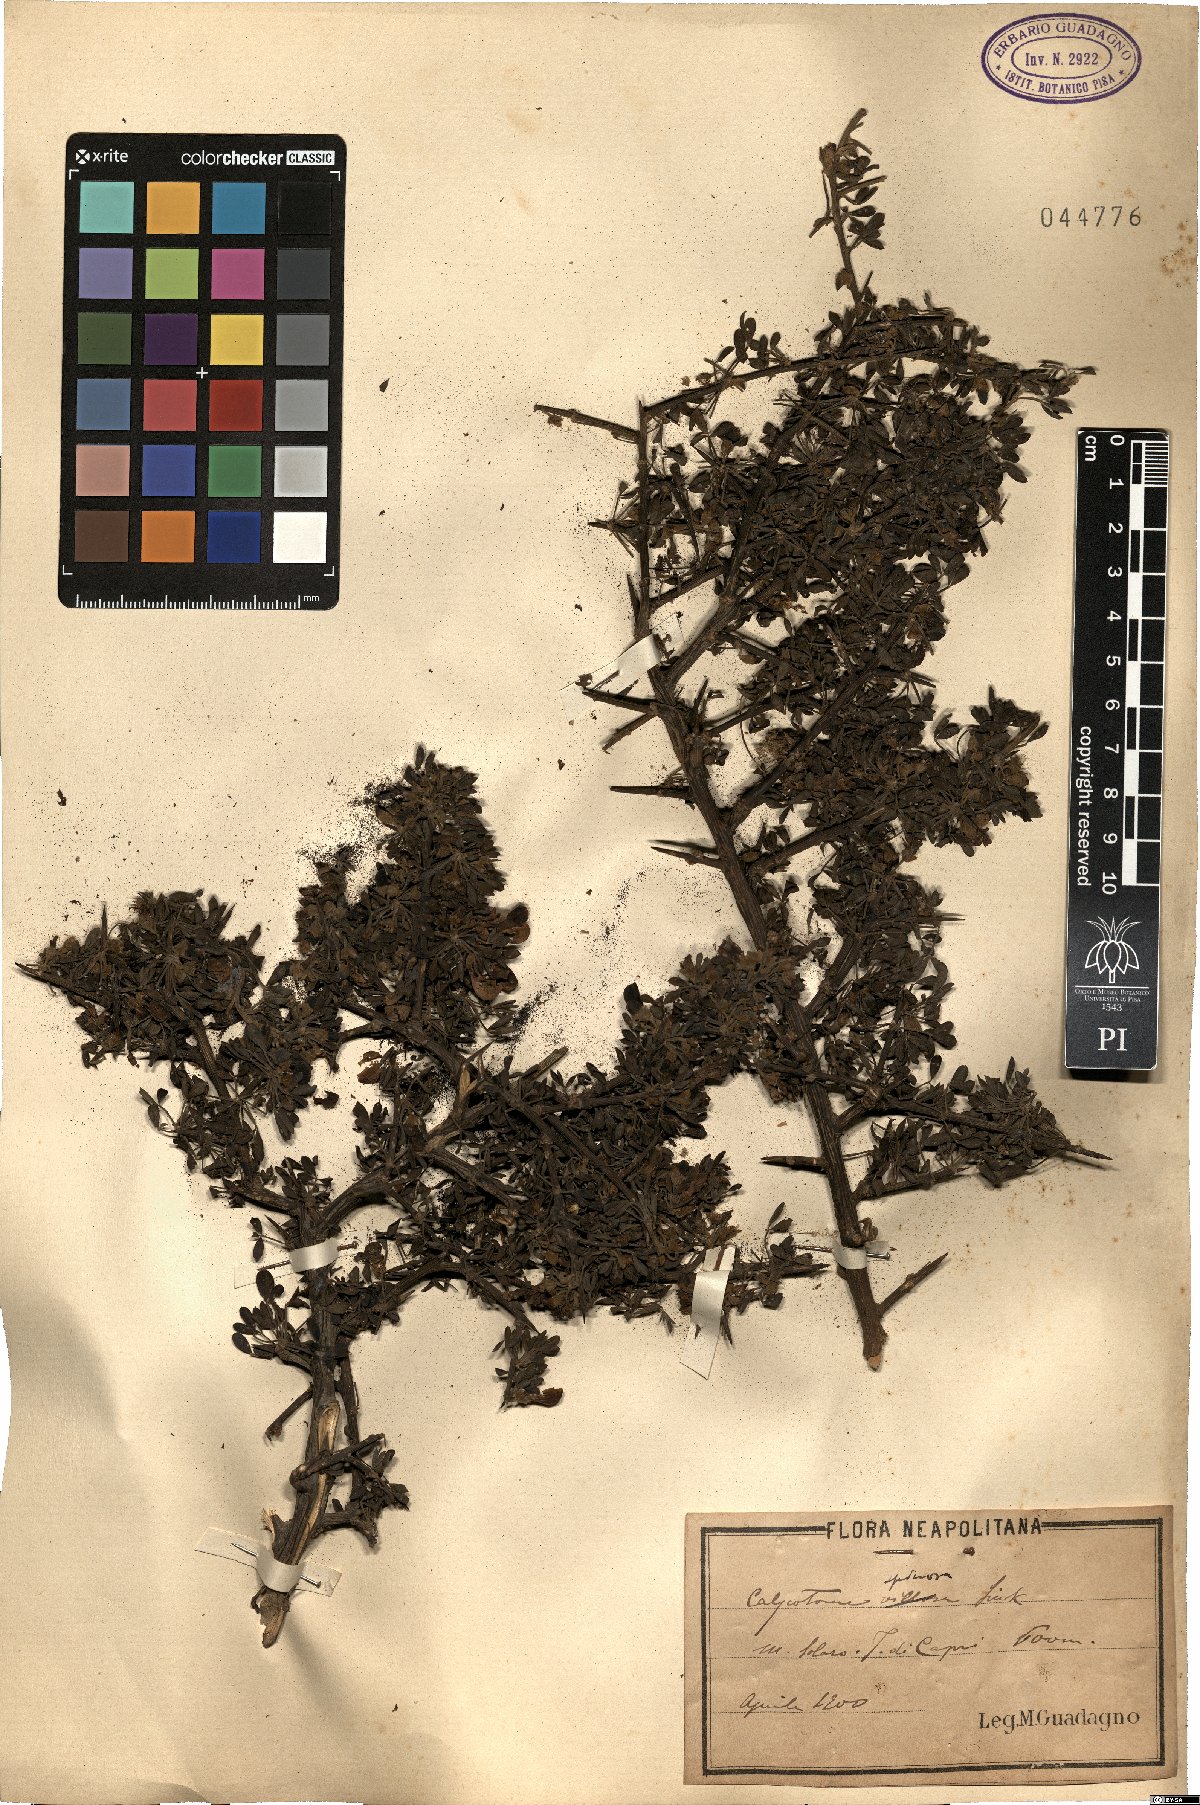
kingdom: Plantae
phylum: Tracheophyta
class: Magnoliopsida
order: Fabales
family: Fabaceae
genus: Calicotome
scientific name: Calicotome spinosa
